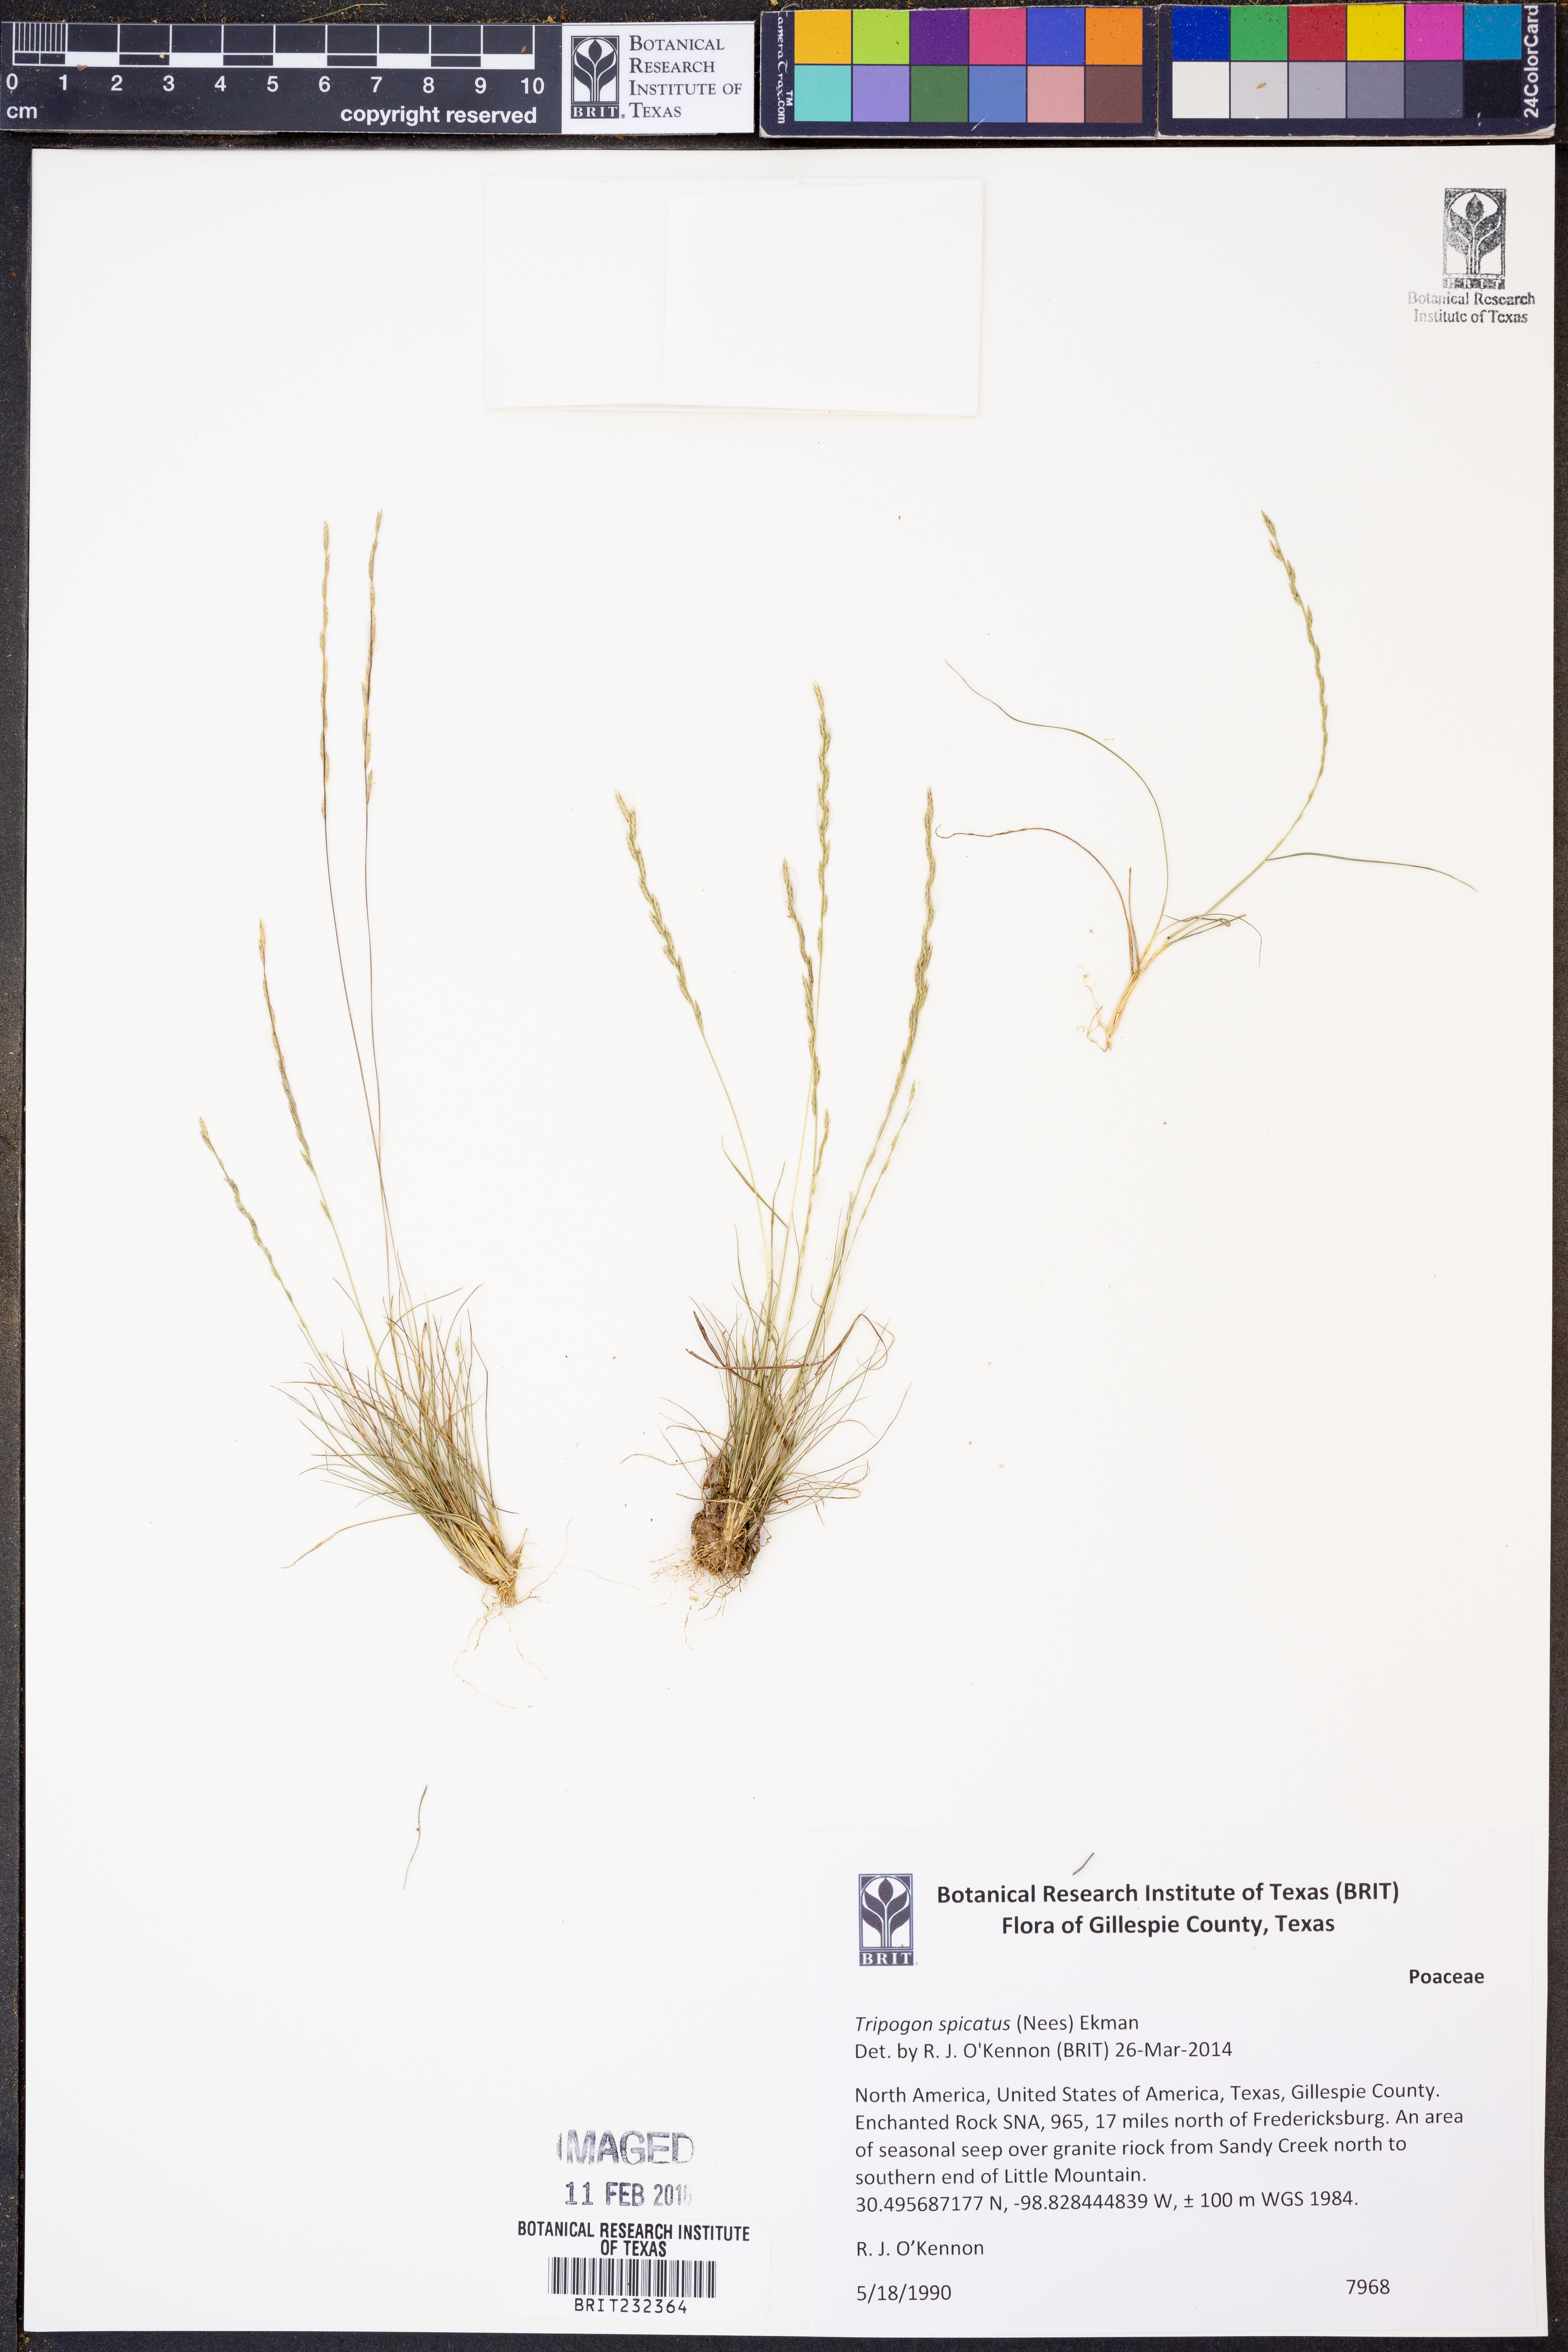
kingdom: Plantae
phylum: Tracheophyta
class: Liliopsida
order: Poales
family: Poaceae
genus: Tripogonella
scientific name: Tripogonella spicata
